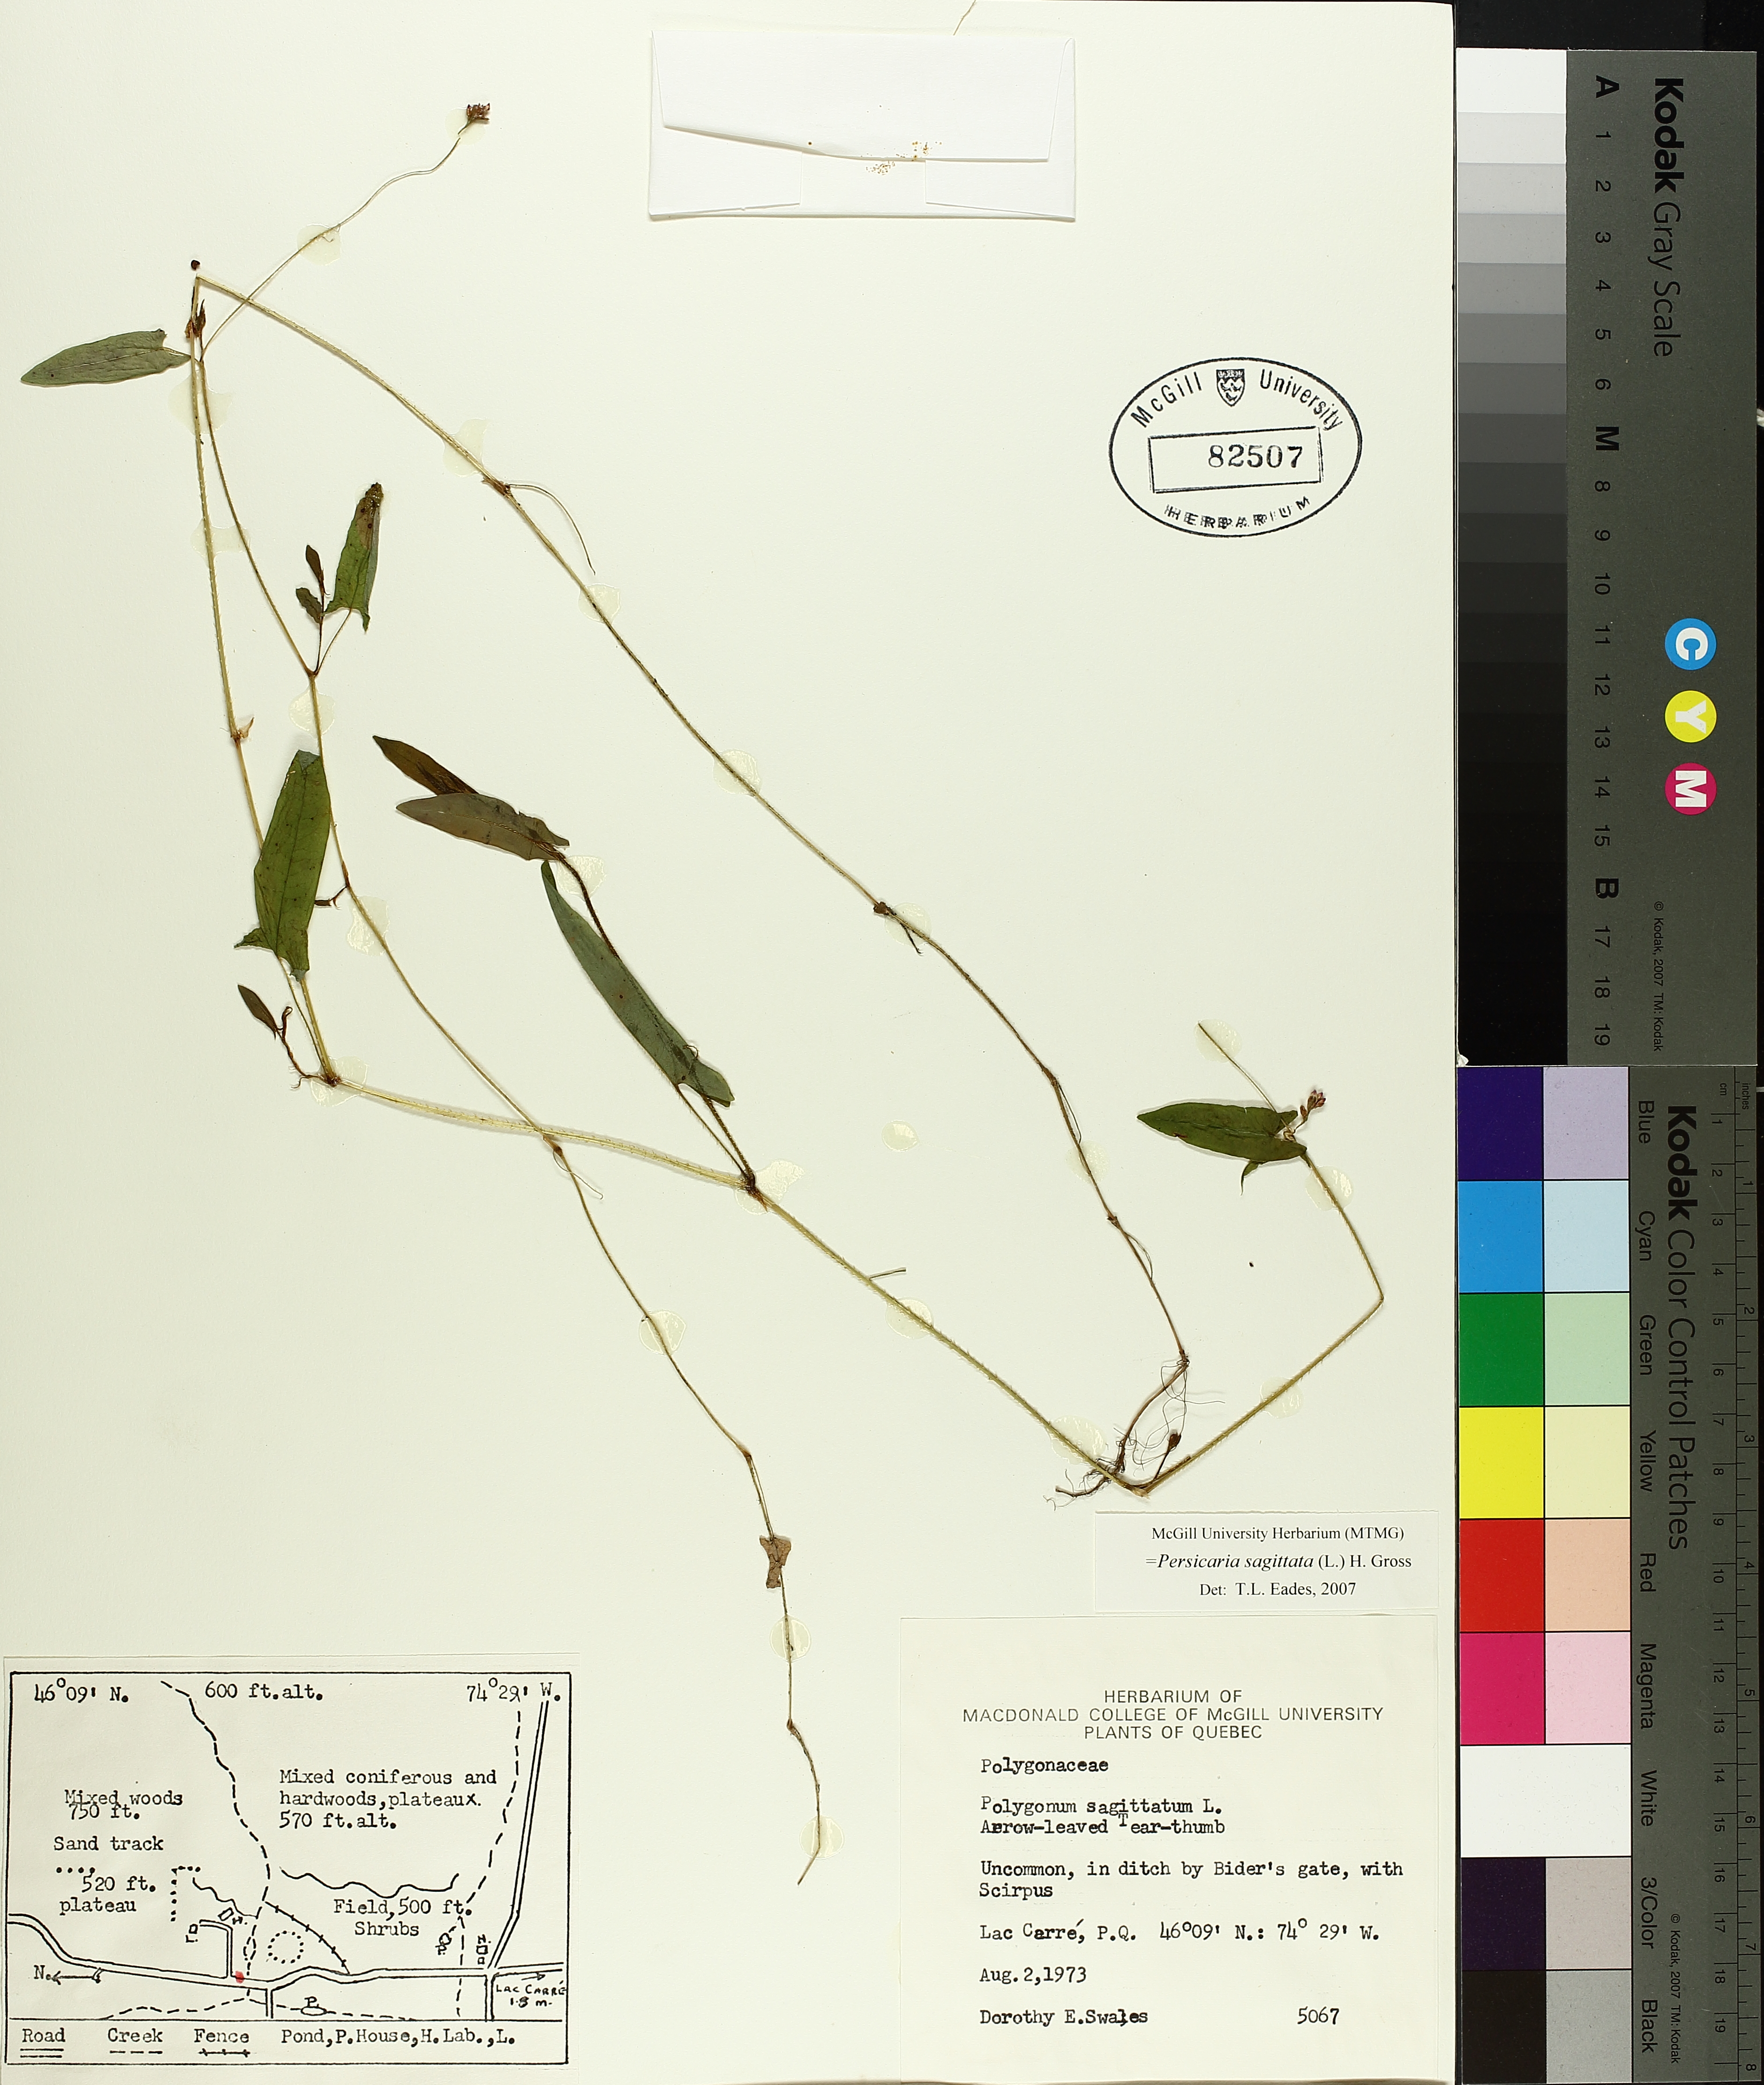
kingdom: Plantae
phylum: Tracheophyta
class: Magnoliopsida
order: Caryophyllales
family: Polygonaceae
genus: Persicaria
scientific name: Persicaria sagittata
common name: American tearthumb
